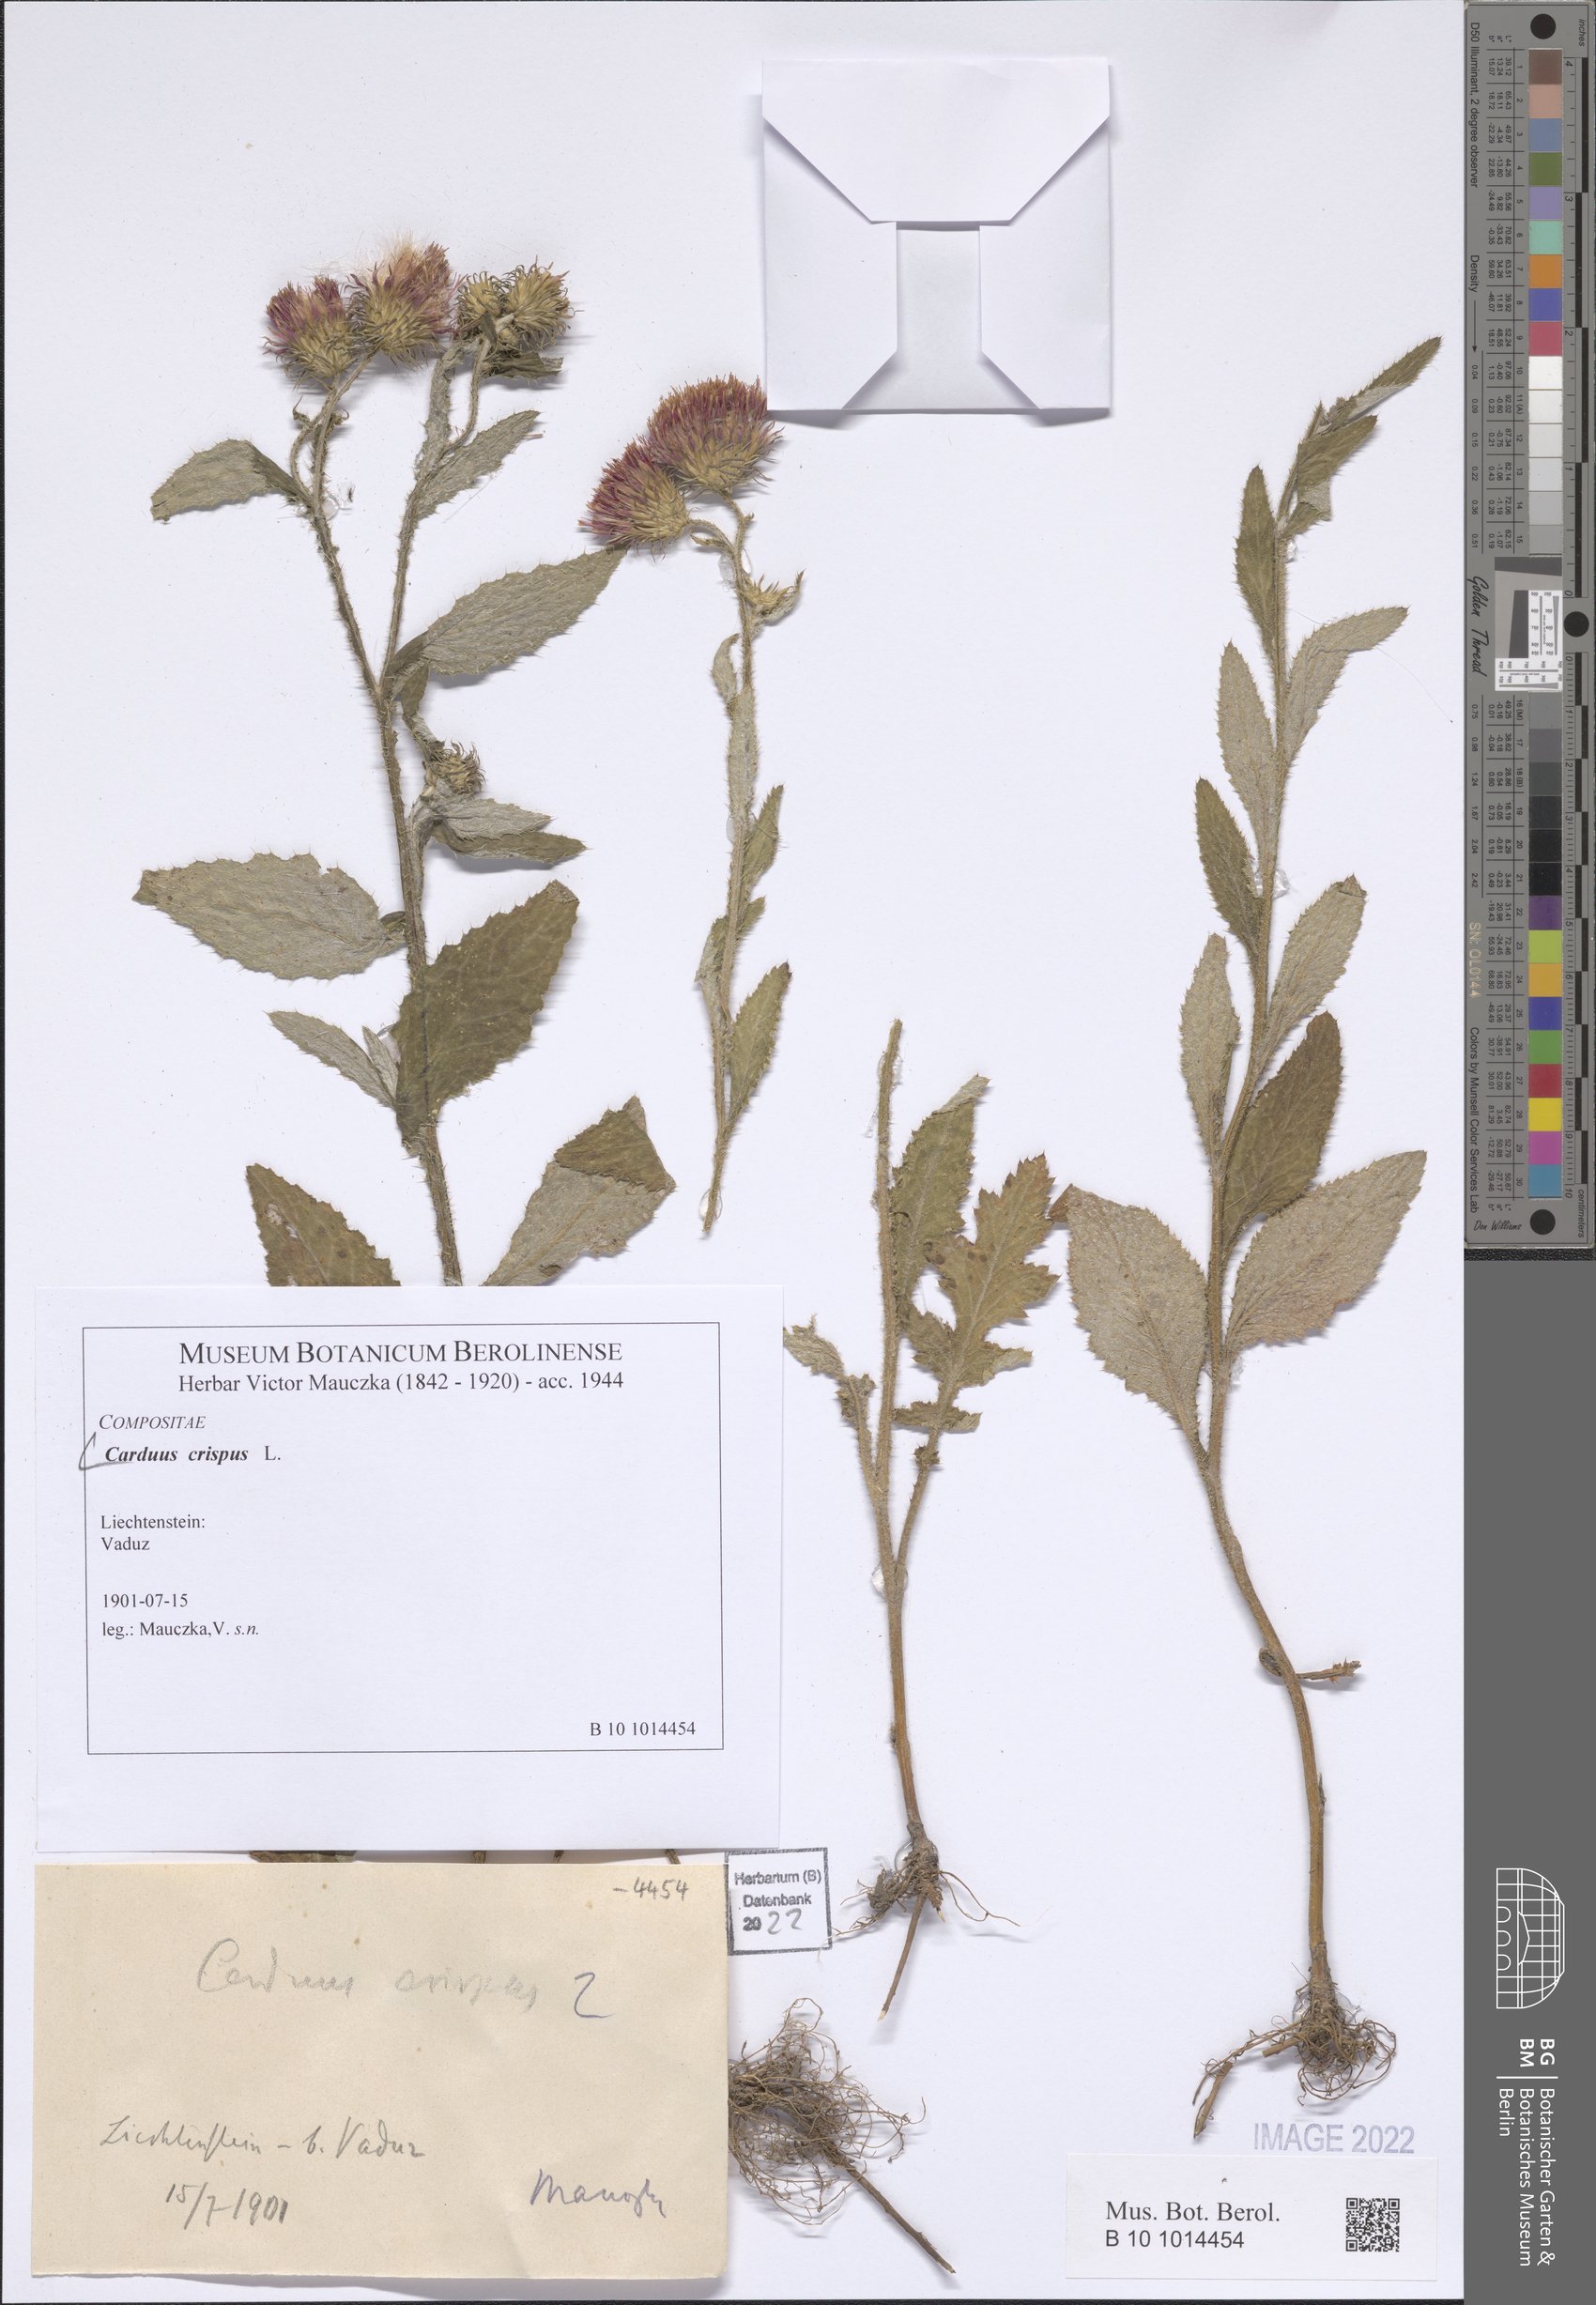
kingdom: Plantae
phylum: Tracheophyta
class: Magnoliopsida
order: Asterales
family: Asteraceae
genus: Carduus
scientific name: Carduus crispus
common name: Welted thistle
